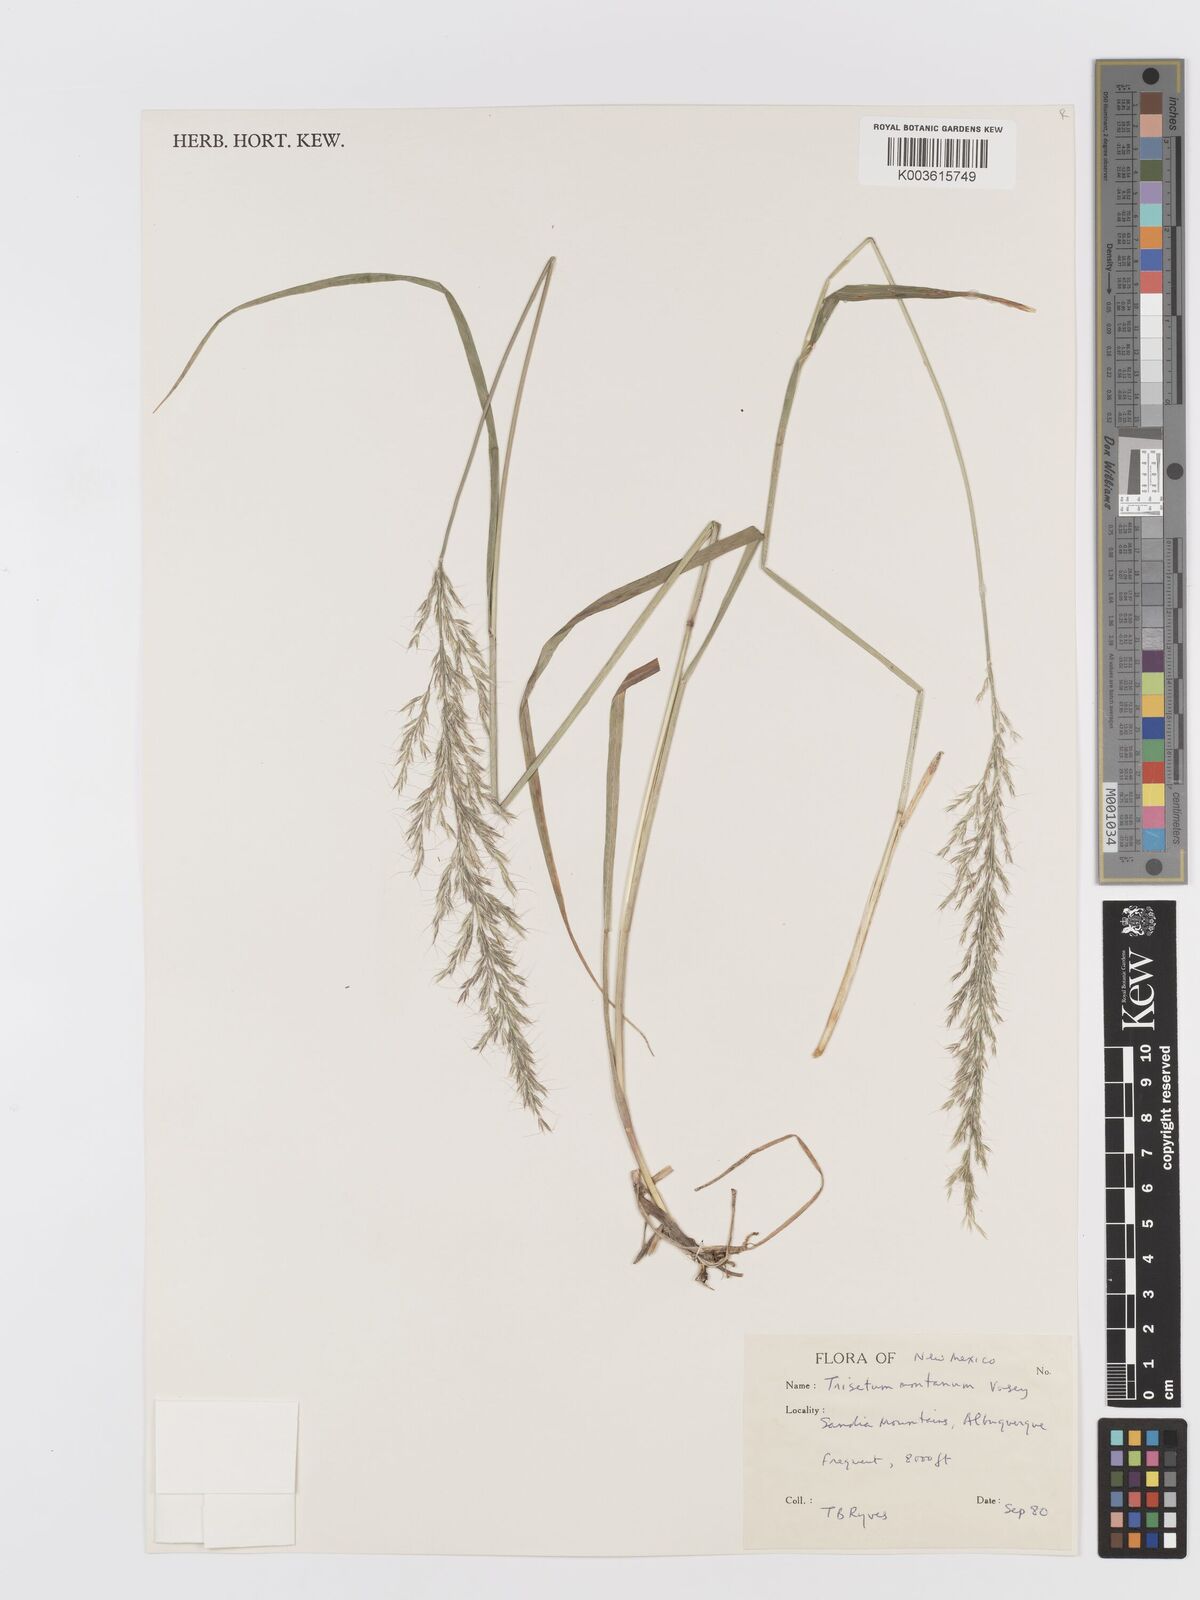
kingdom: Plantae
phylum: Tracheophyta
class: Liliopsida
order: Poales
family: Poaceae
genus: Koeleria
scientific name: Koeleria vaseyi
